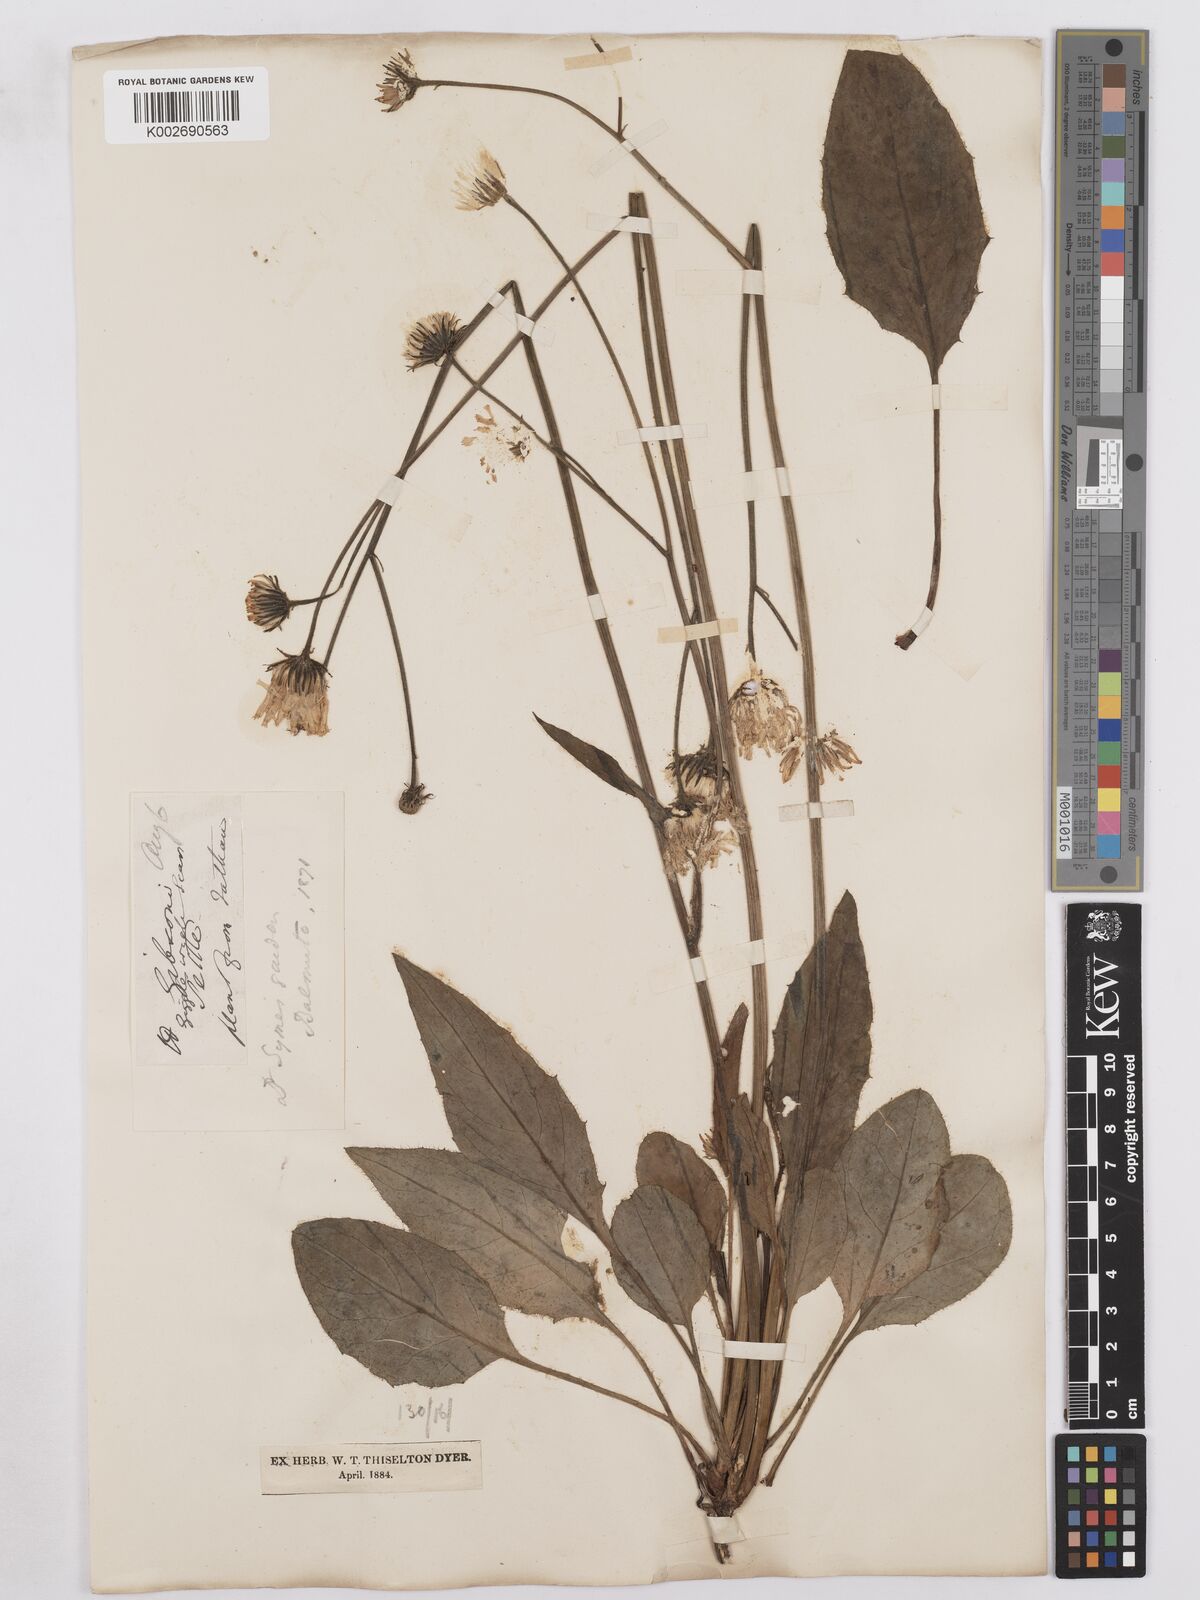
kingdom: Plantae
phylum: Tracheophyta
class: Magnoliopsida
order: Asterales
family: Asteraceae
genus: Hieracium
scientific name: Hieracium hypochoeroides
